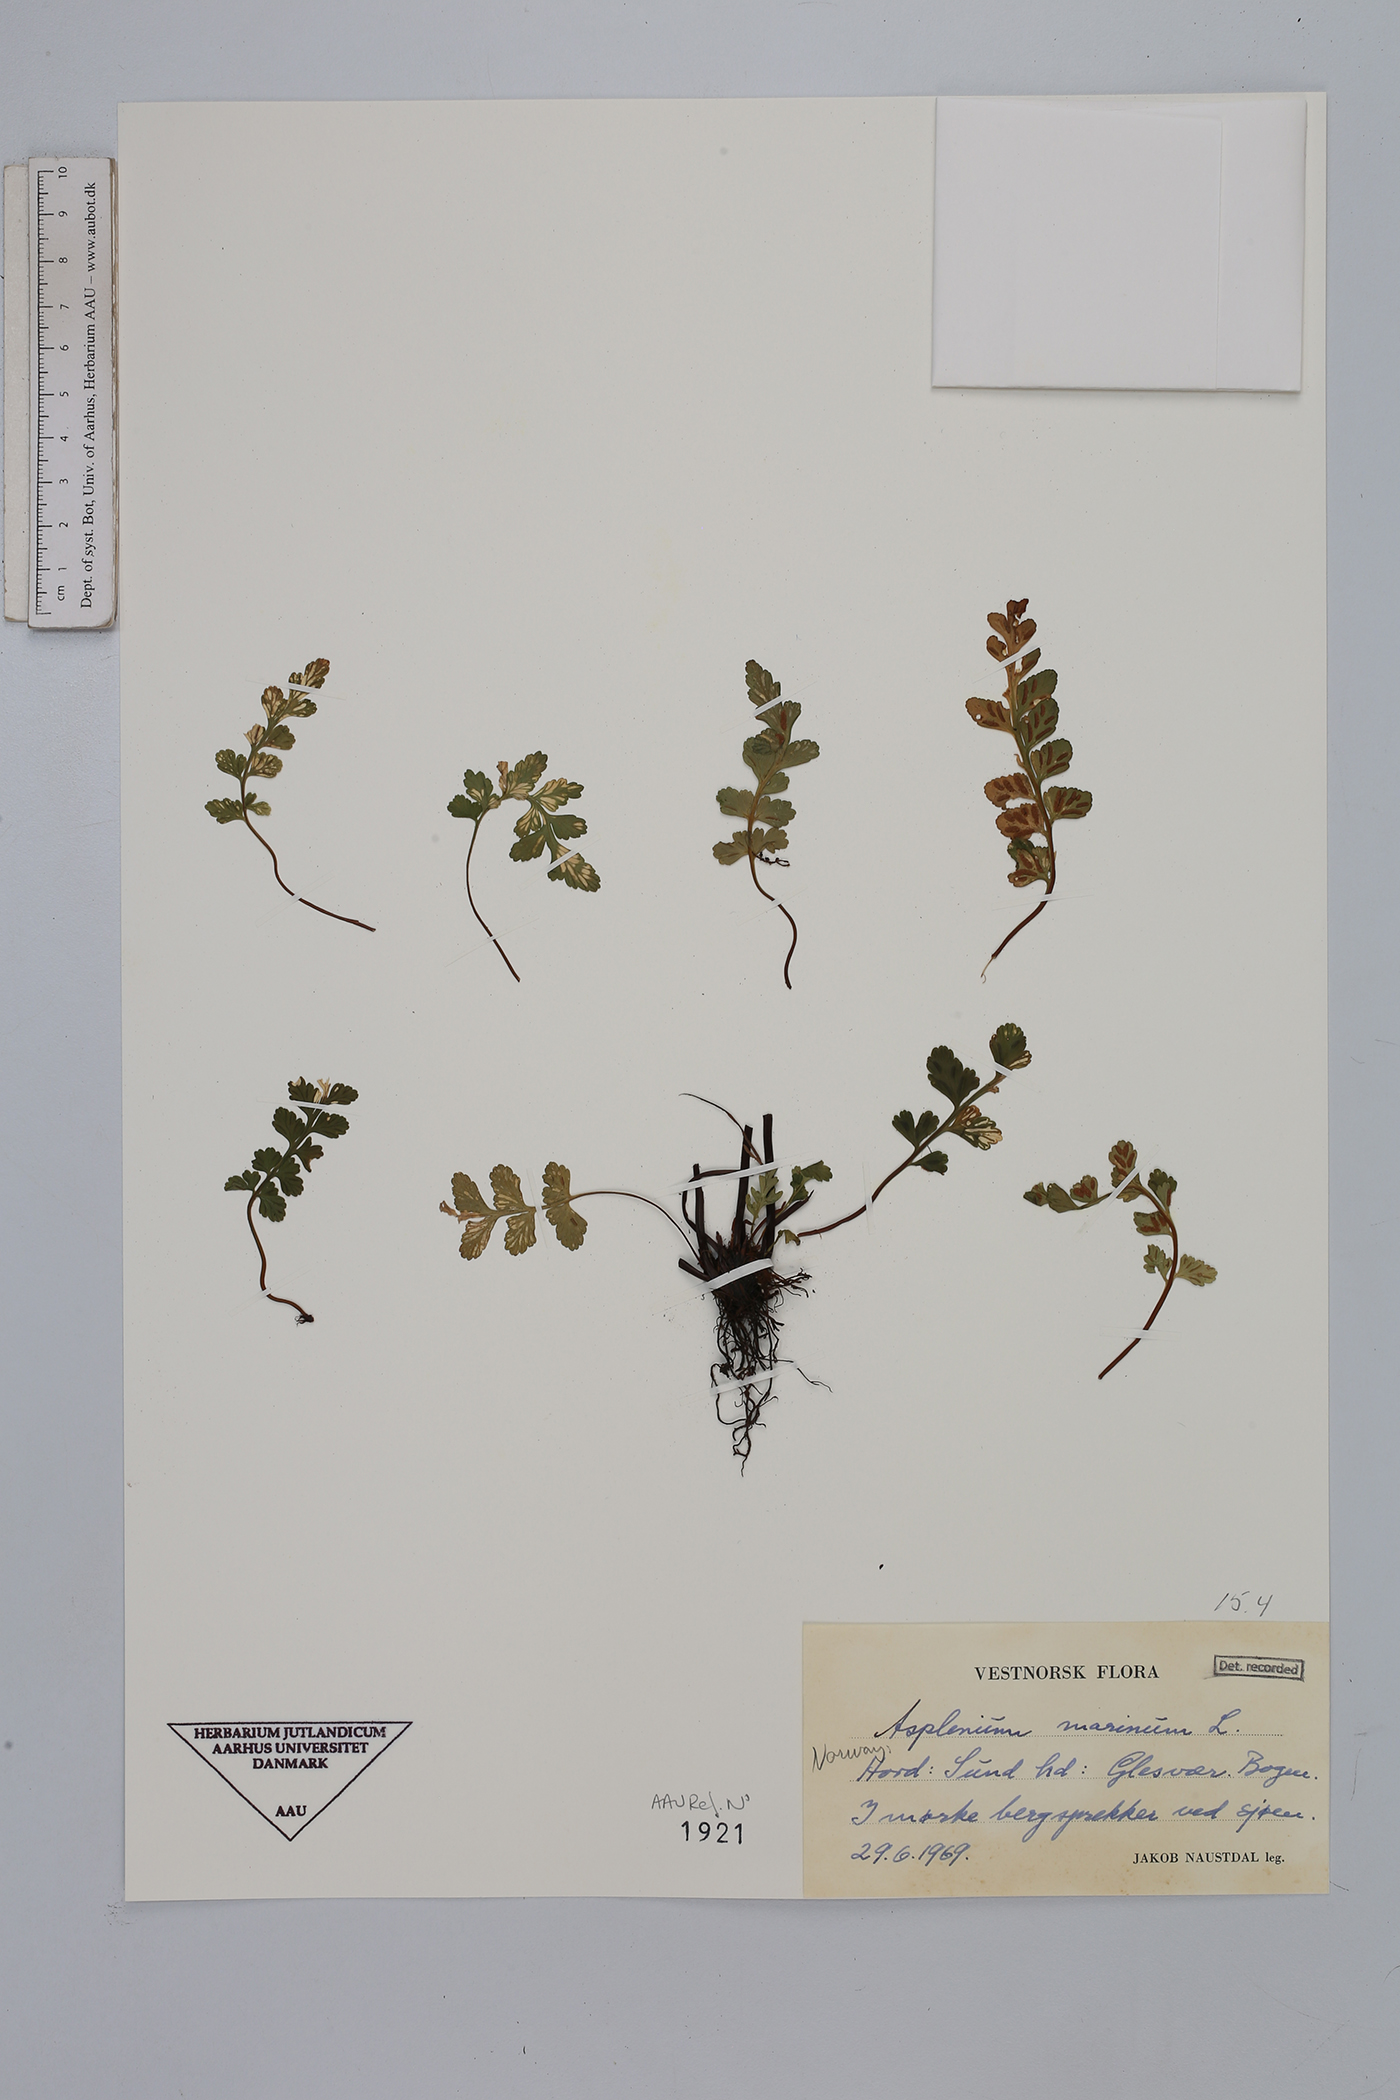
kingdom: Plantae
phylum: Tracheophyta
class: Polypodiopsida
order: Polypodiales
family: Aspleniaceae
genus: Asplenium
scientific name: Asplenium marinum
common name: Sea spleenwort
